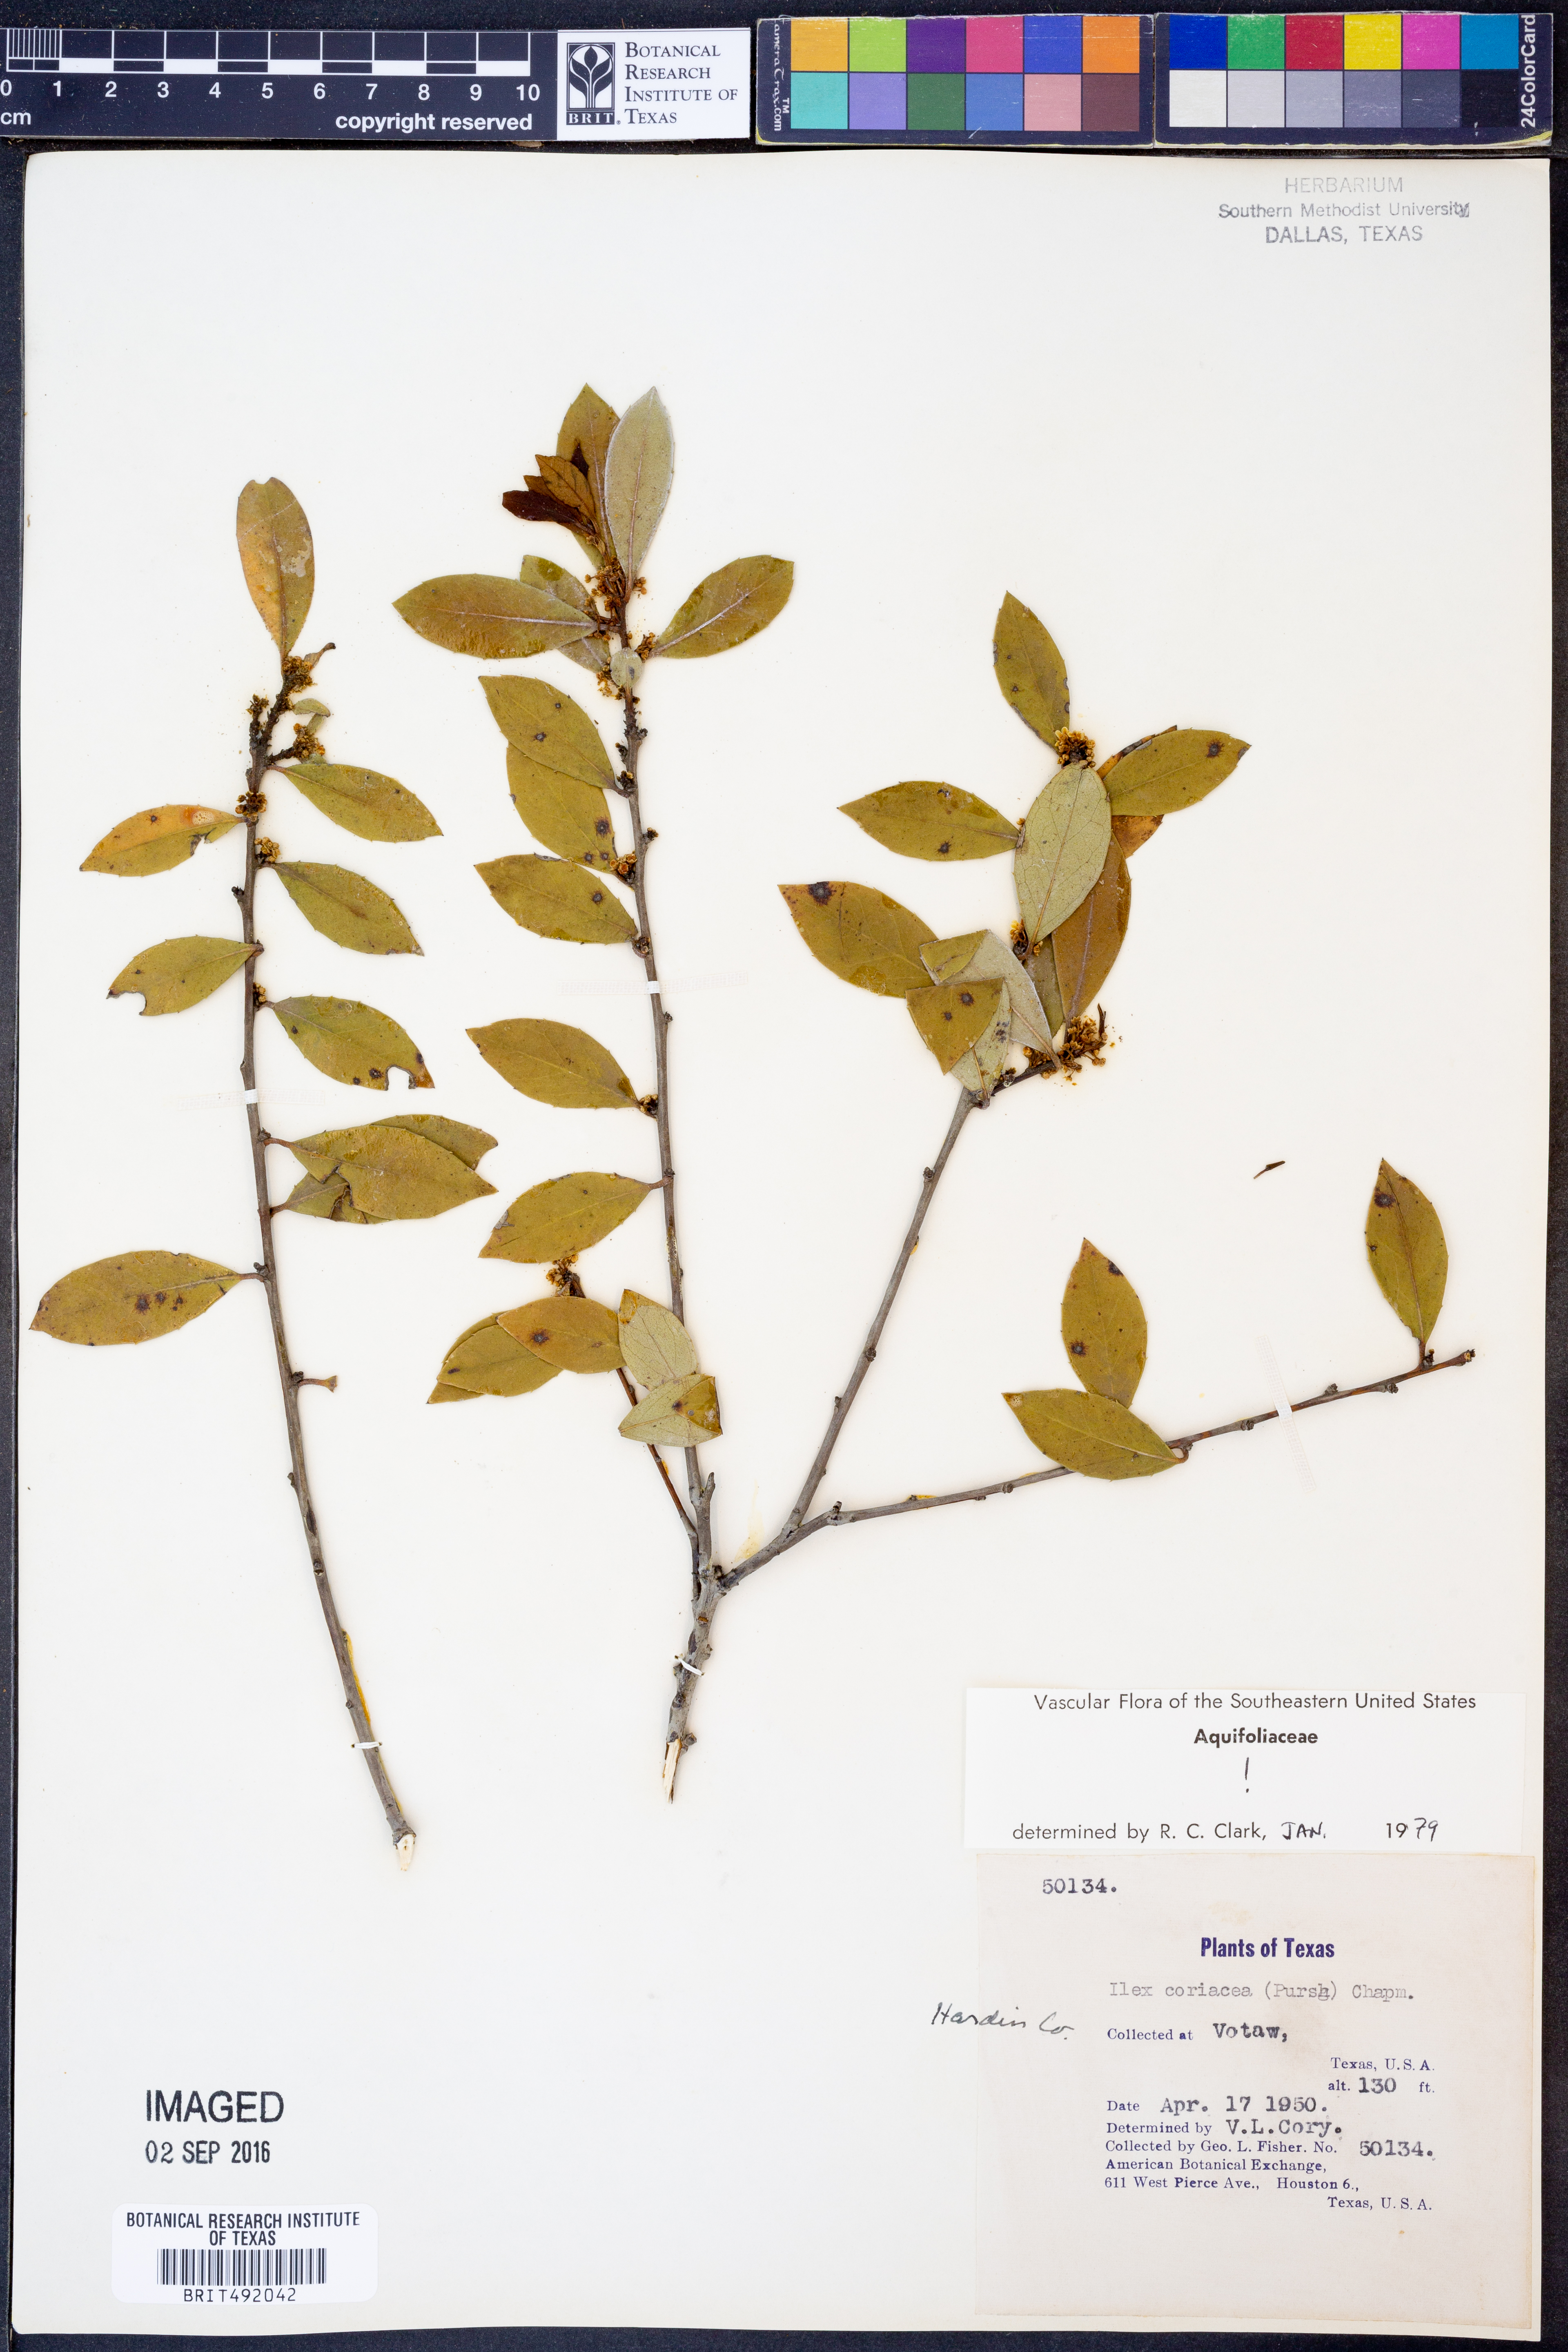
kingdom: Plantae
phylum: Tracheophyta
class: Magnoliopsida
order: Aquifoliales
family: Aquifoliaceae
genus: Ilex
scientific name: Ilex coriacea
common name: Sweet gallberry
